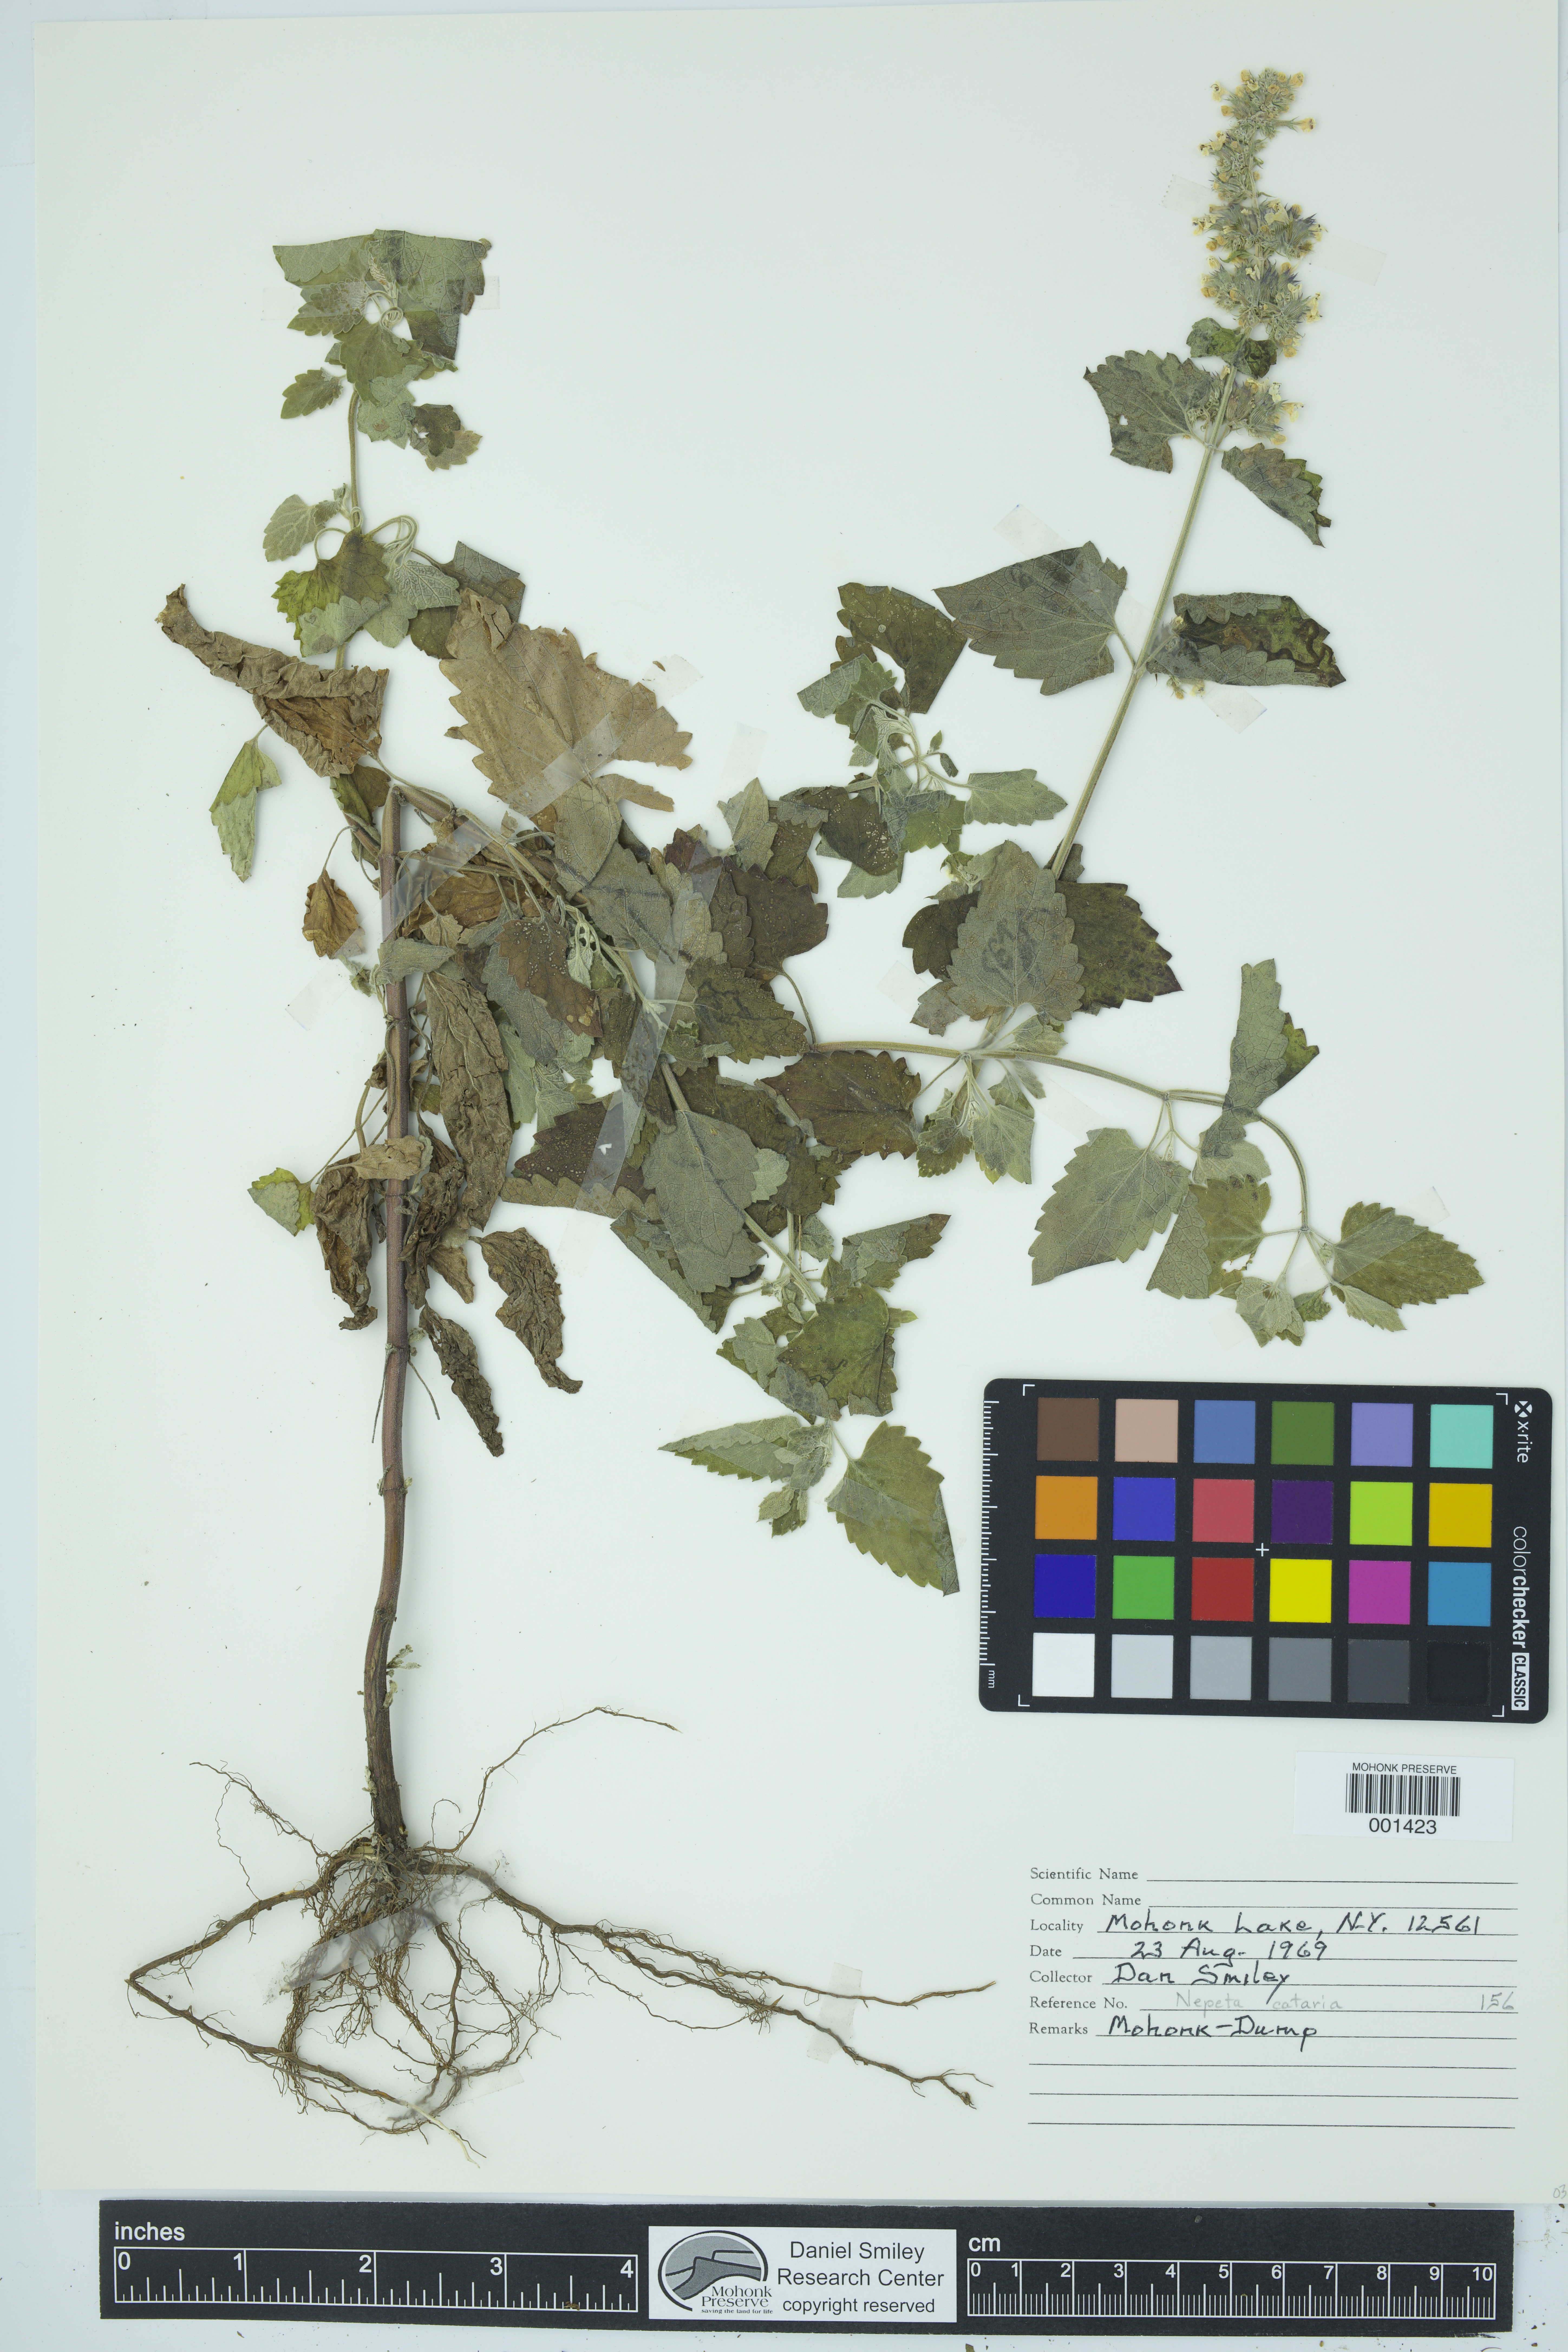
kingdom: Plantae
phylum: Tracheophyta
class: Magnoliopsida
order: Lamiales
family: Lamiaceae
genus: Nepeta
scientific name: Nepeta cataria
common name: Catnip
